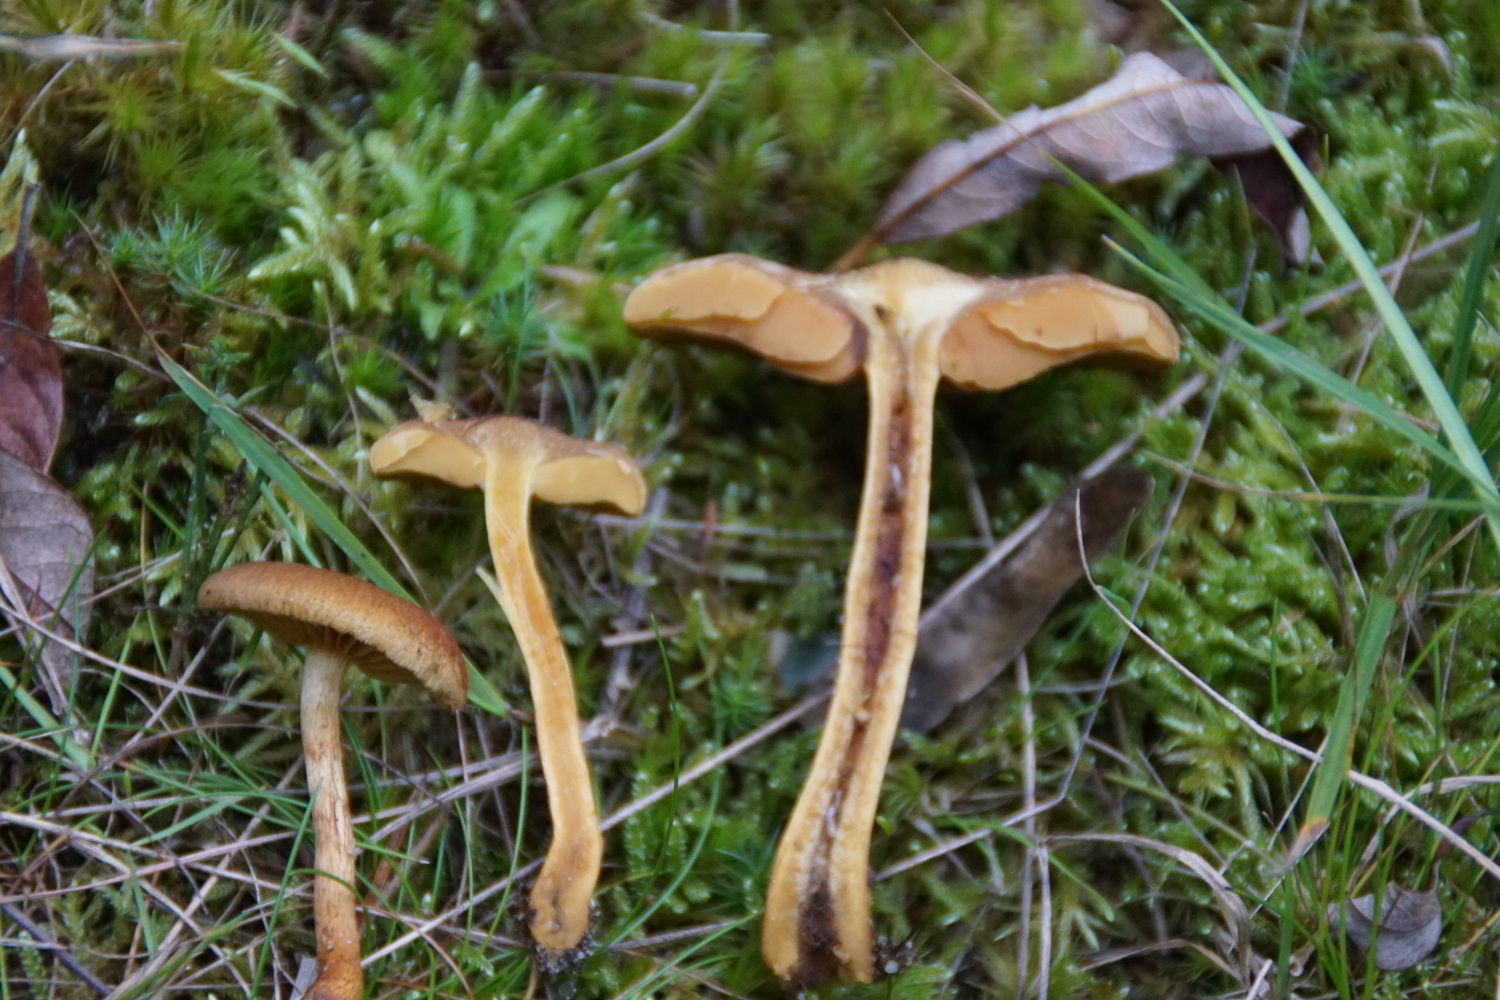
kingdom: Fungi
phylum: Basidiomycota
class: Agaricomycetes
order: Agaricales
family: Cortinariaceae
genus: Cortinarius
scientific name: Cortinarius cinnamomeus
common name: kanel-slørhat
